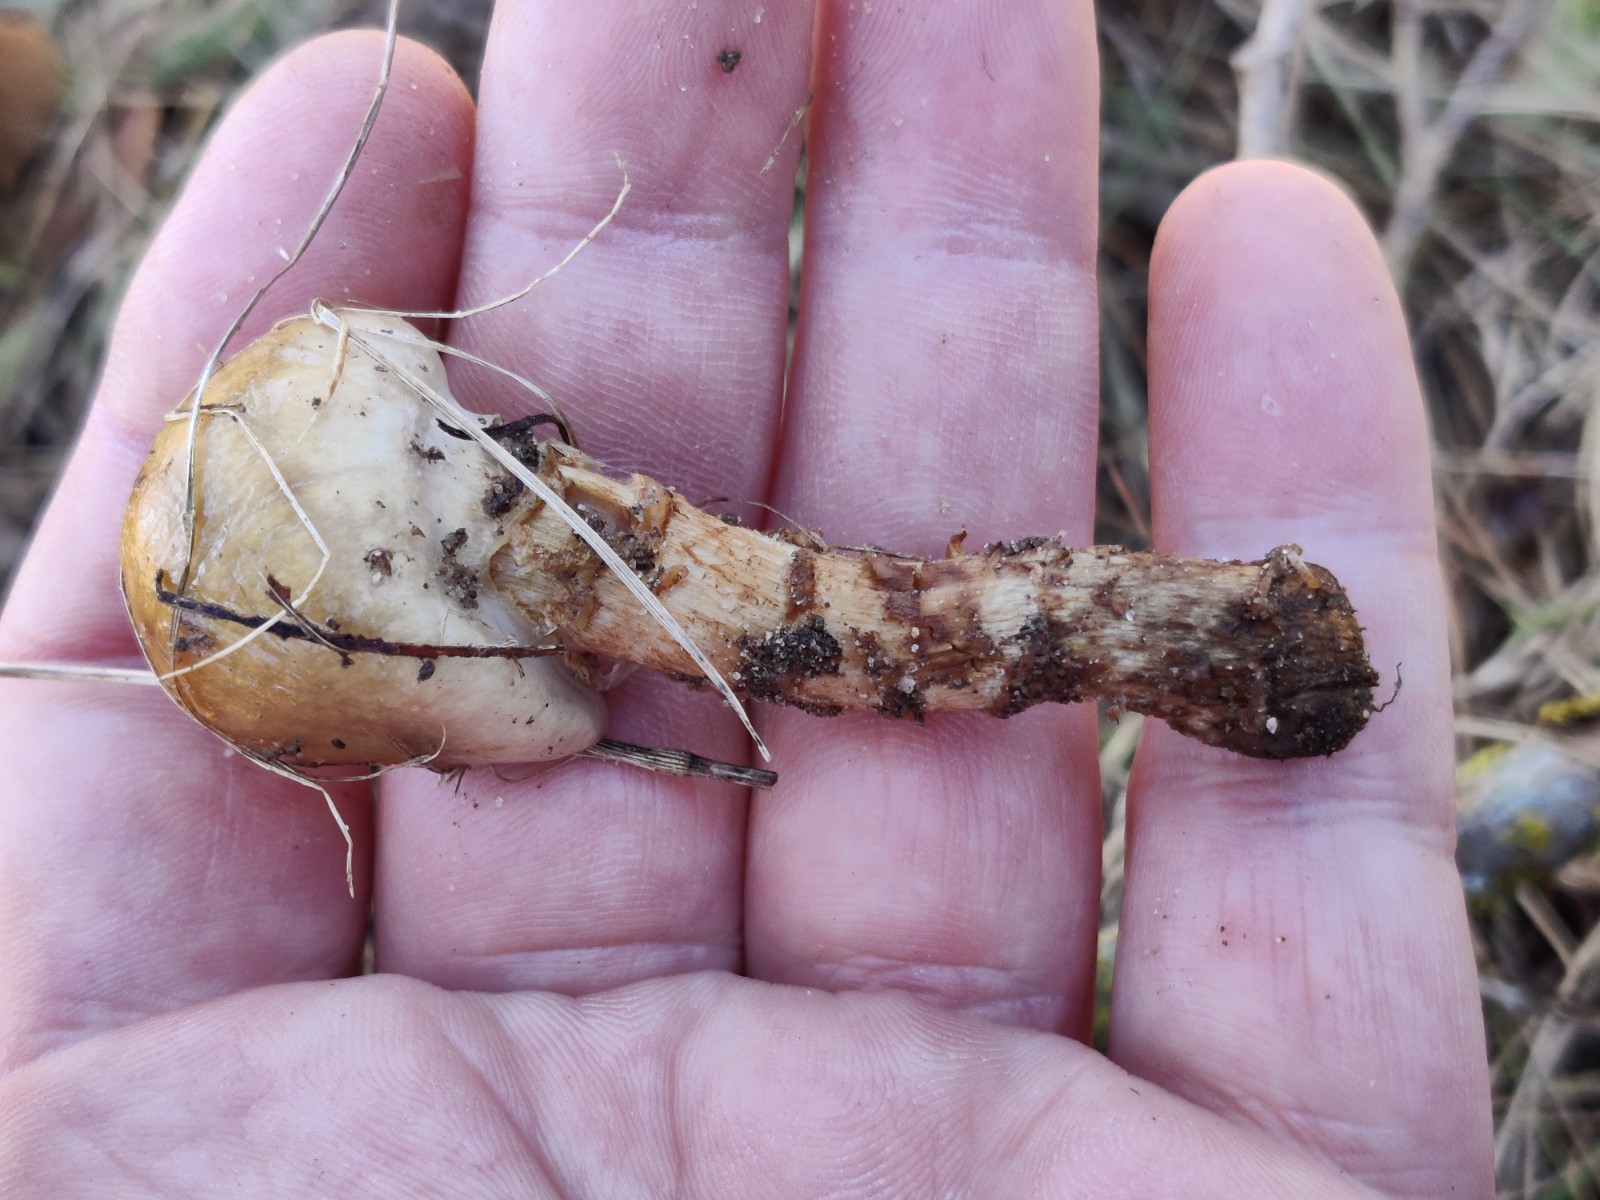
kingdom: Fungi
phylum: Basidiomycota
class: Agaricomycetes
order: Agaricales
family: Cortinariaceae
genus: Cortinarius
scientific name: Cortinarius trivialis
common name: Girdled webcap
